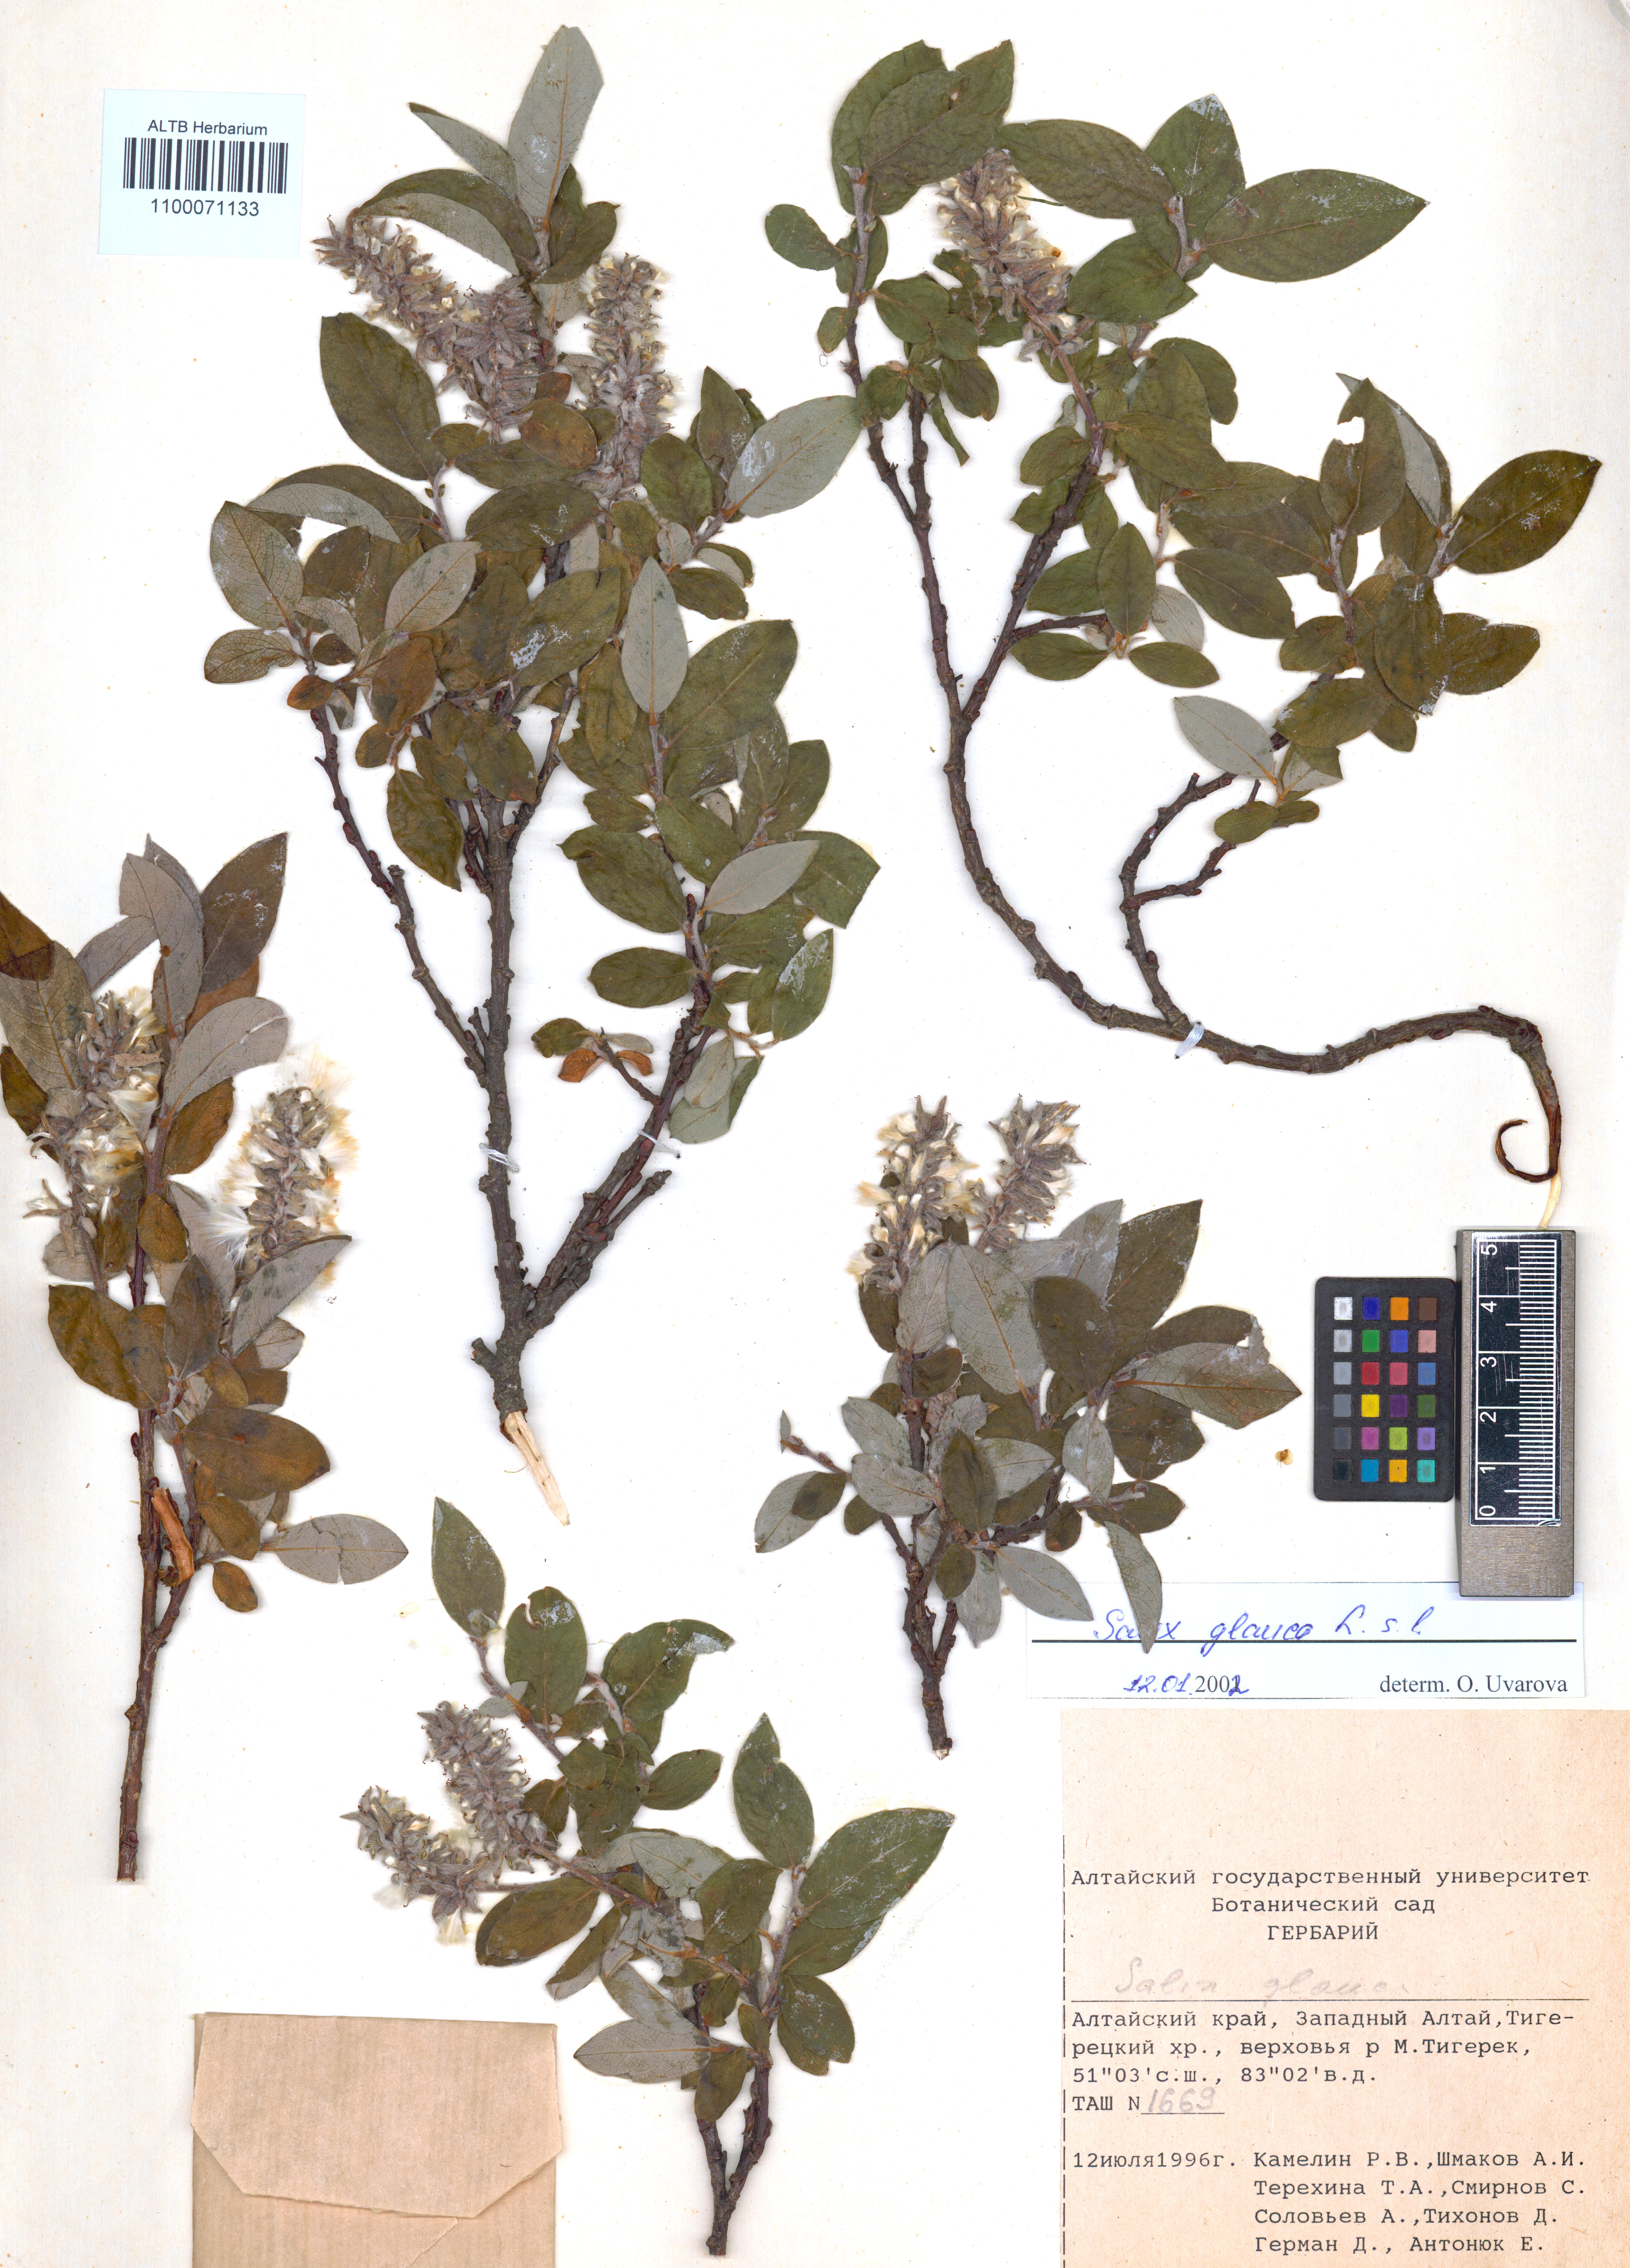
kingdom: Plantae
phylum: Tracheophyta
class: Magnoliopsida
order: Malpighiales
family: Salicaceae
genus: Salix
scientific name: Salix glauca
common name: Glaucous willow
